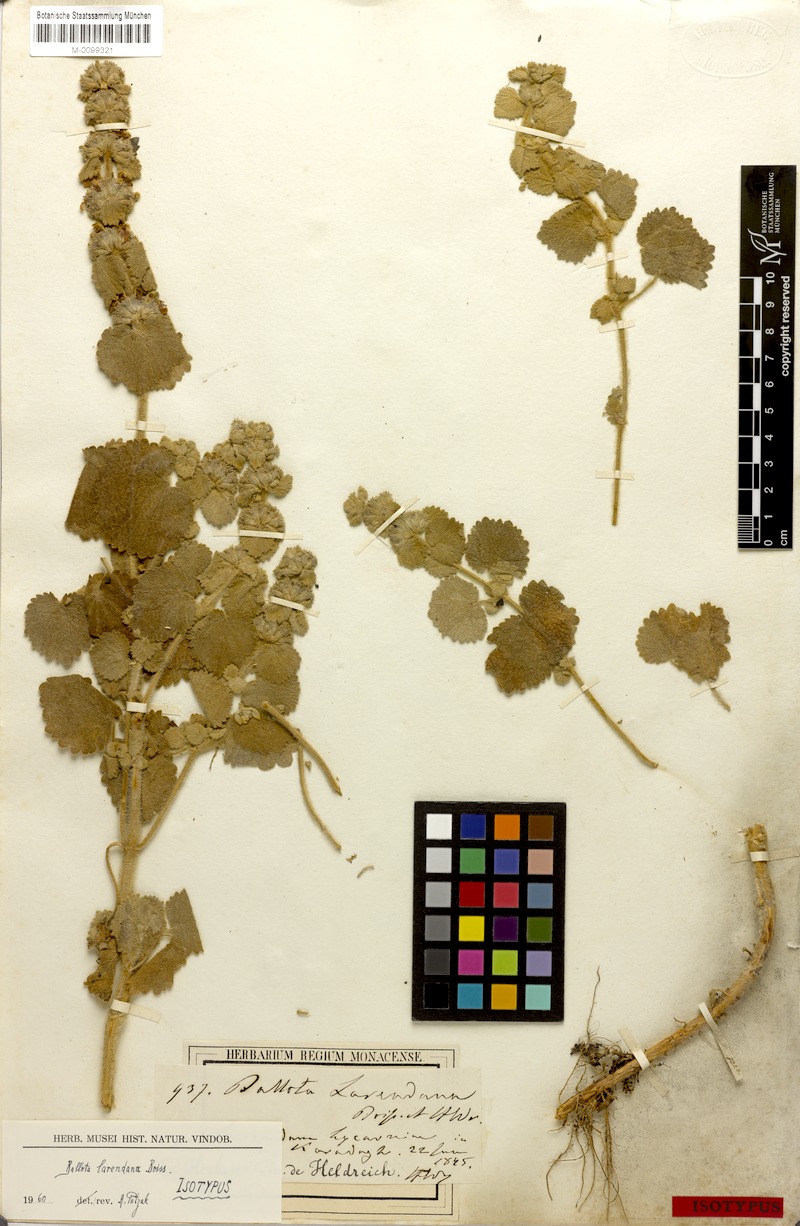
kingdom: Plantae
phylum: Tracheophyta
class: Magnoliopsida
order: Lamiales
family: Lamiaceae
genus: Ballota
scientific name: Ballota larendana
